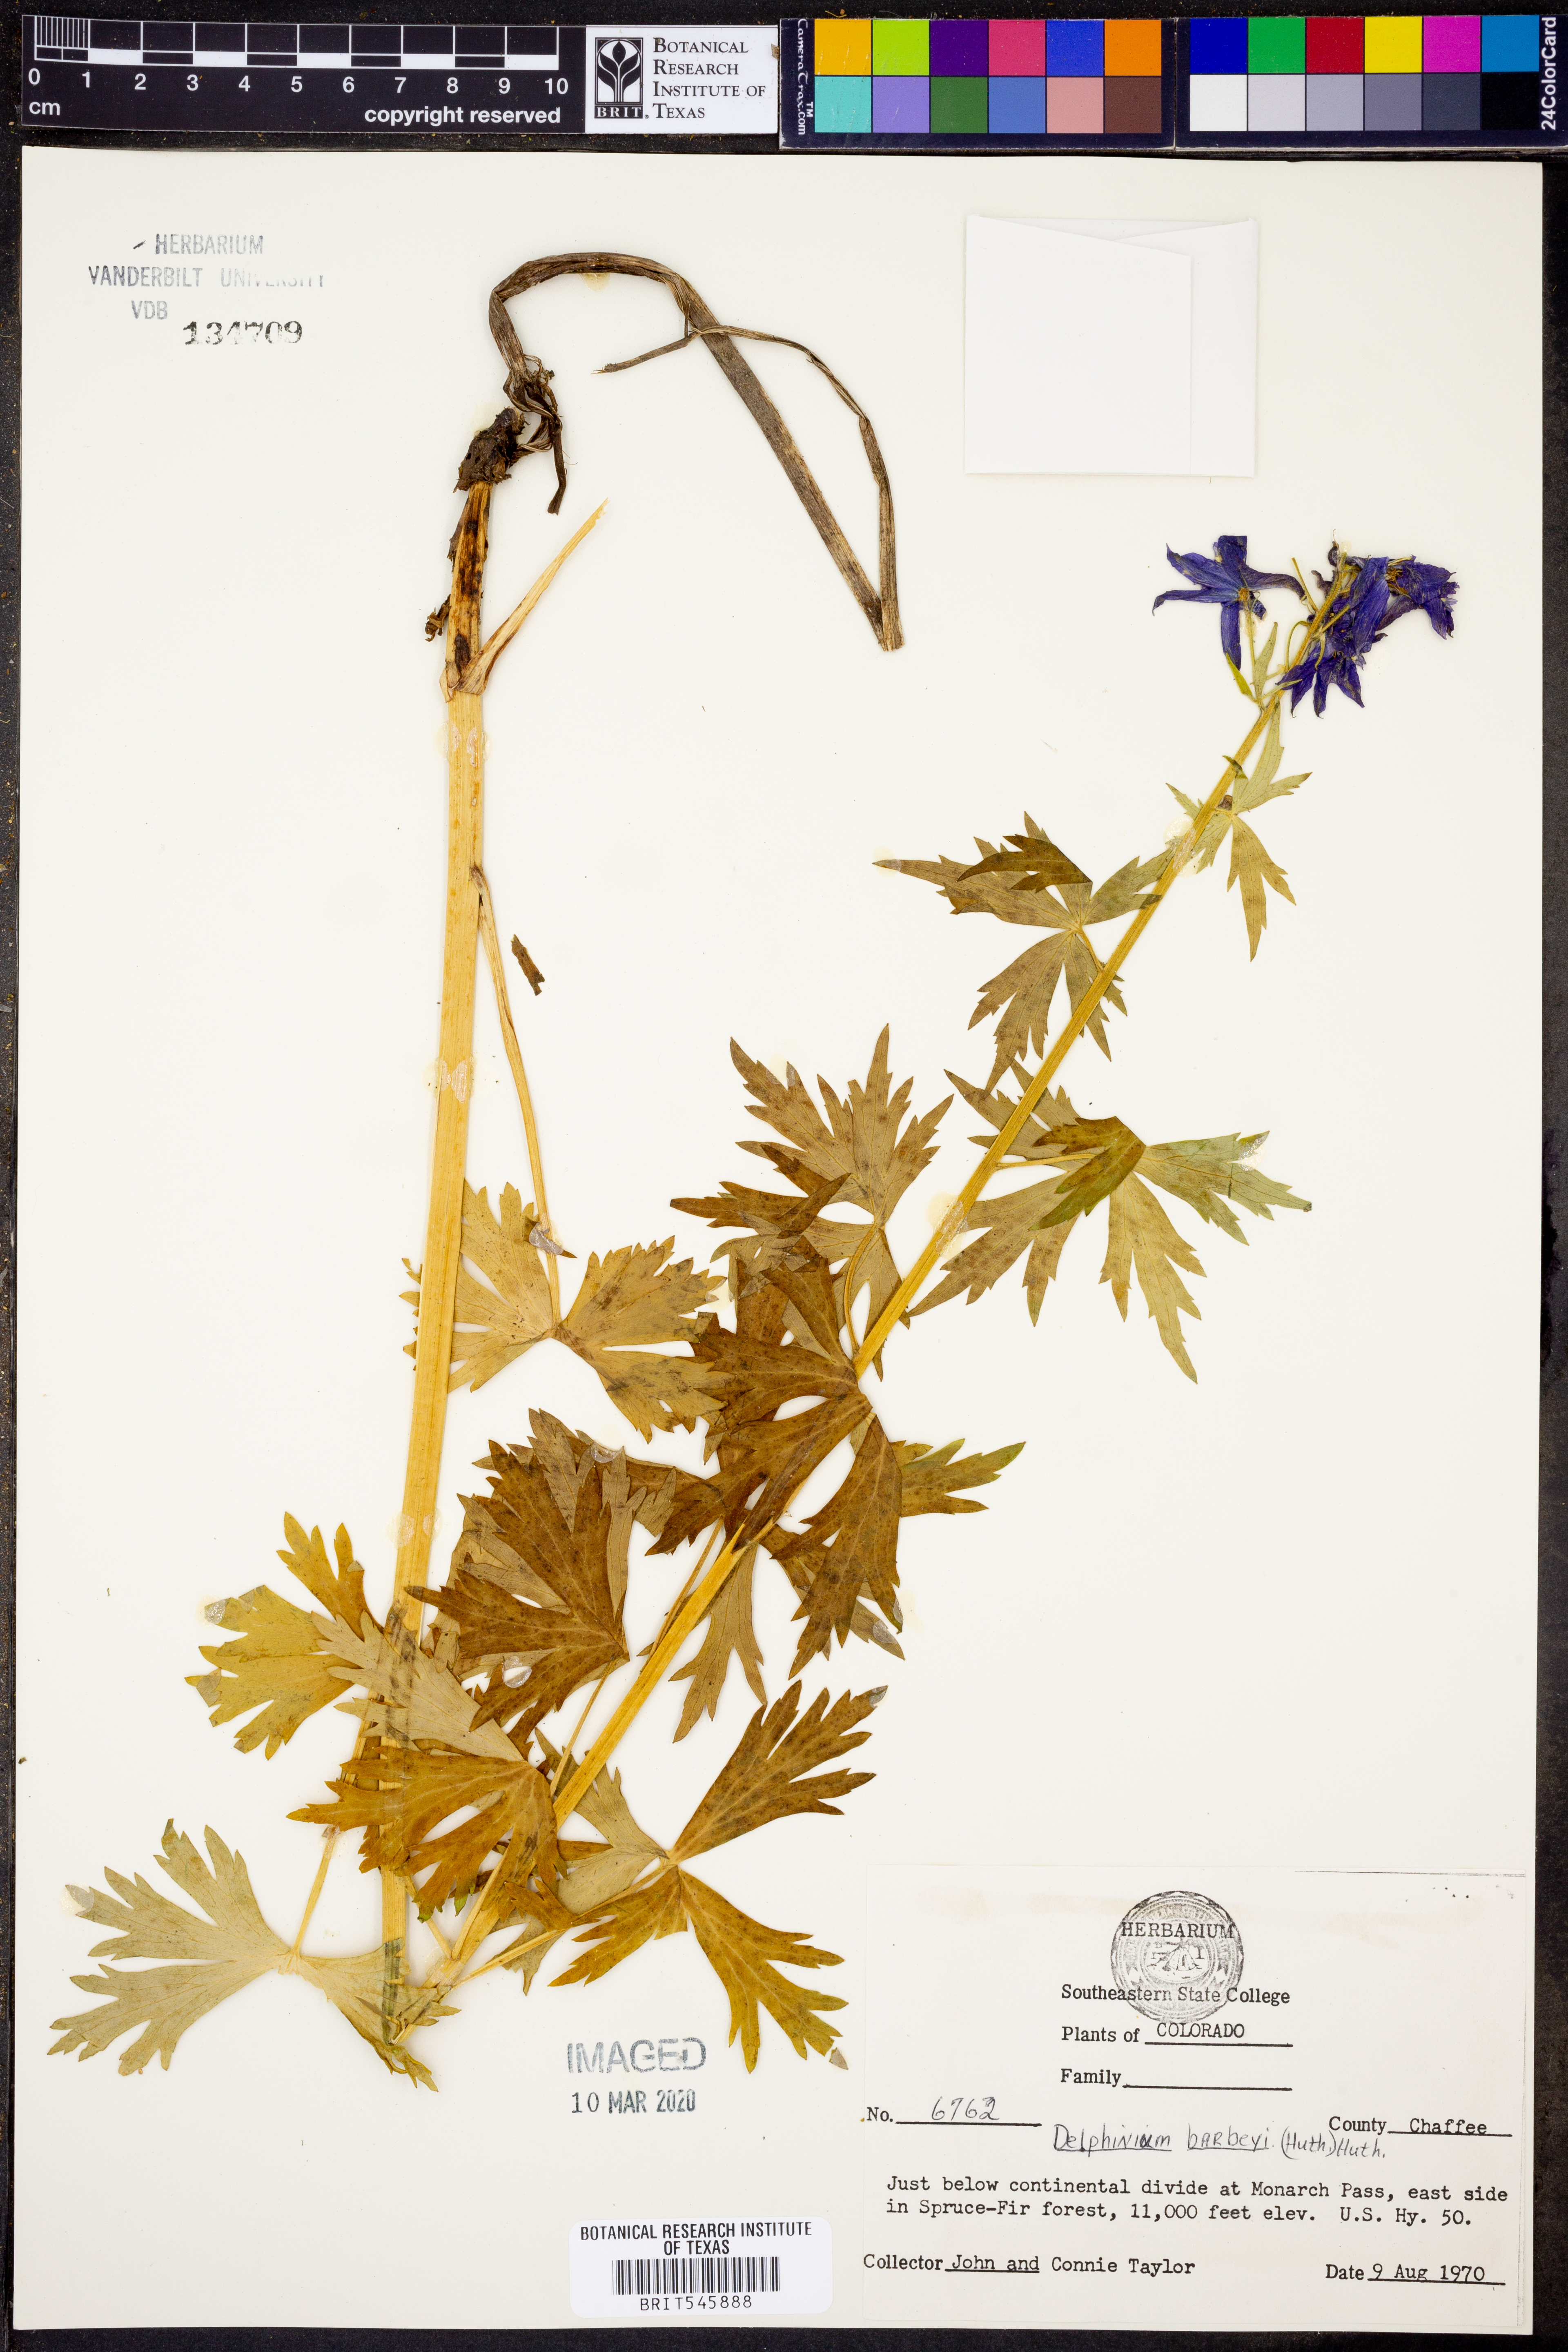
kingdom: Plantae
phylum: Tracheophyta
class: Magnoliopsida
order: Ranunculales
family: Ranunculaceae
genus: Delphinium
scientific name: Delphinium barbeyi
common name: Subalpine larkspur
